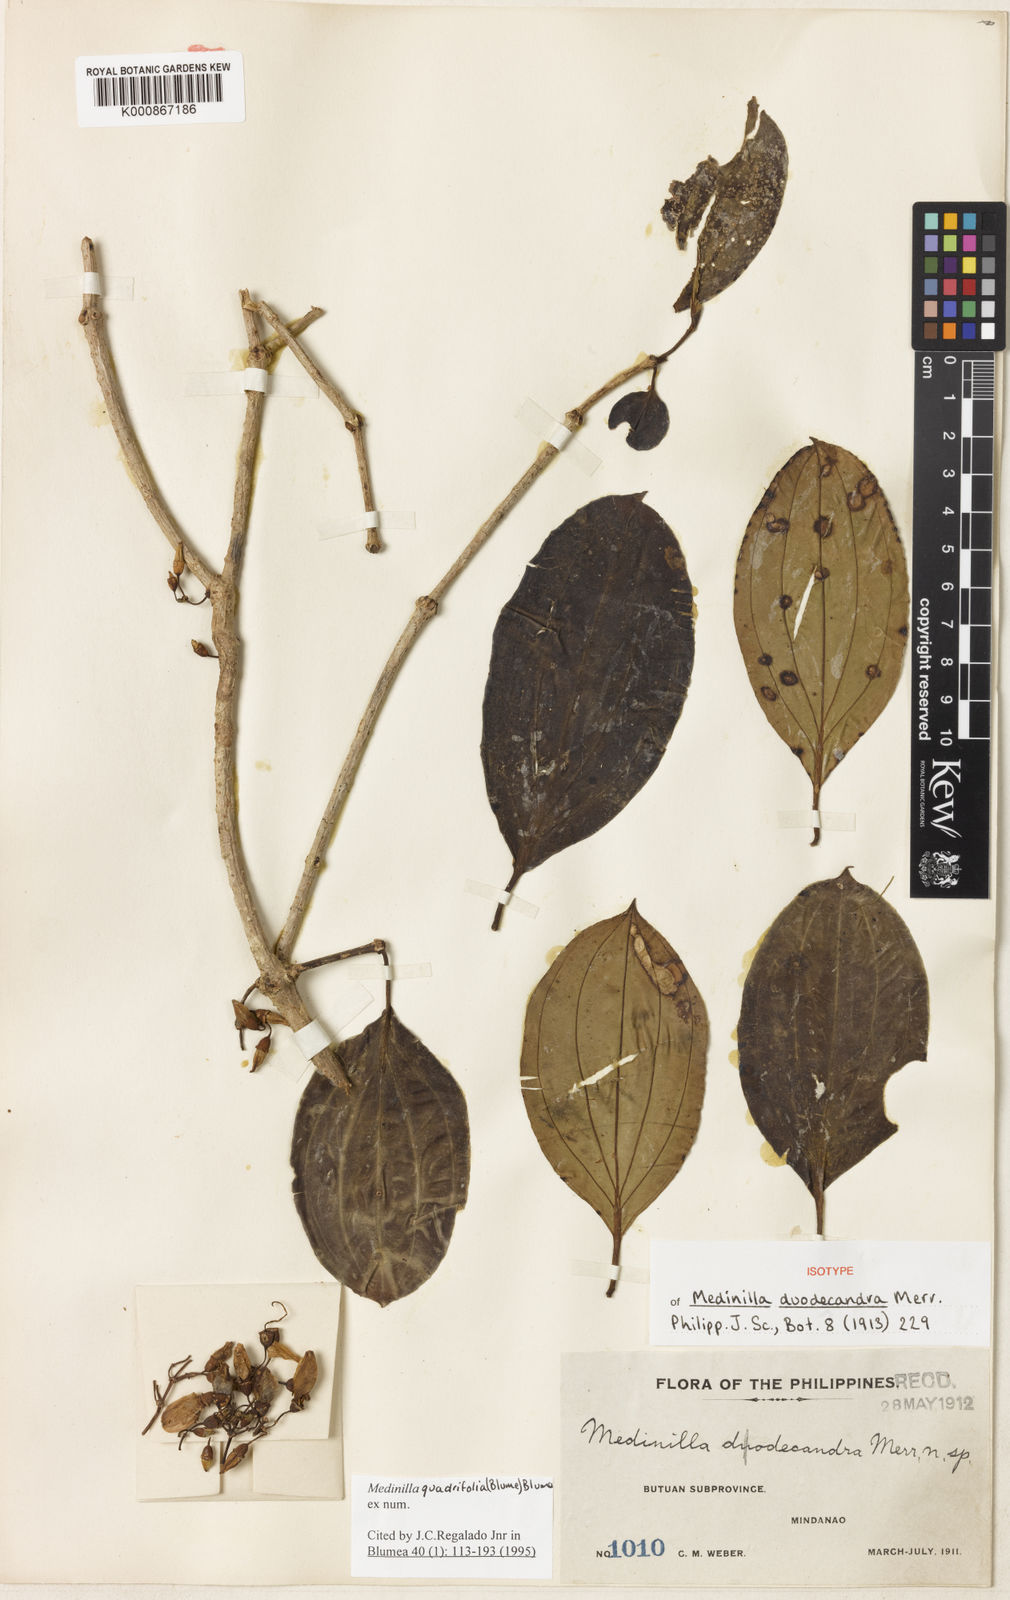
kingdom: Plantae
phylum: Tracheophyta
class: Magnoliopsida
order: Myrtales
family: Melastomataceae
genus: Medinilla
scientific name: Medinilla quadrifolia
